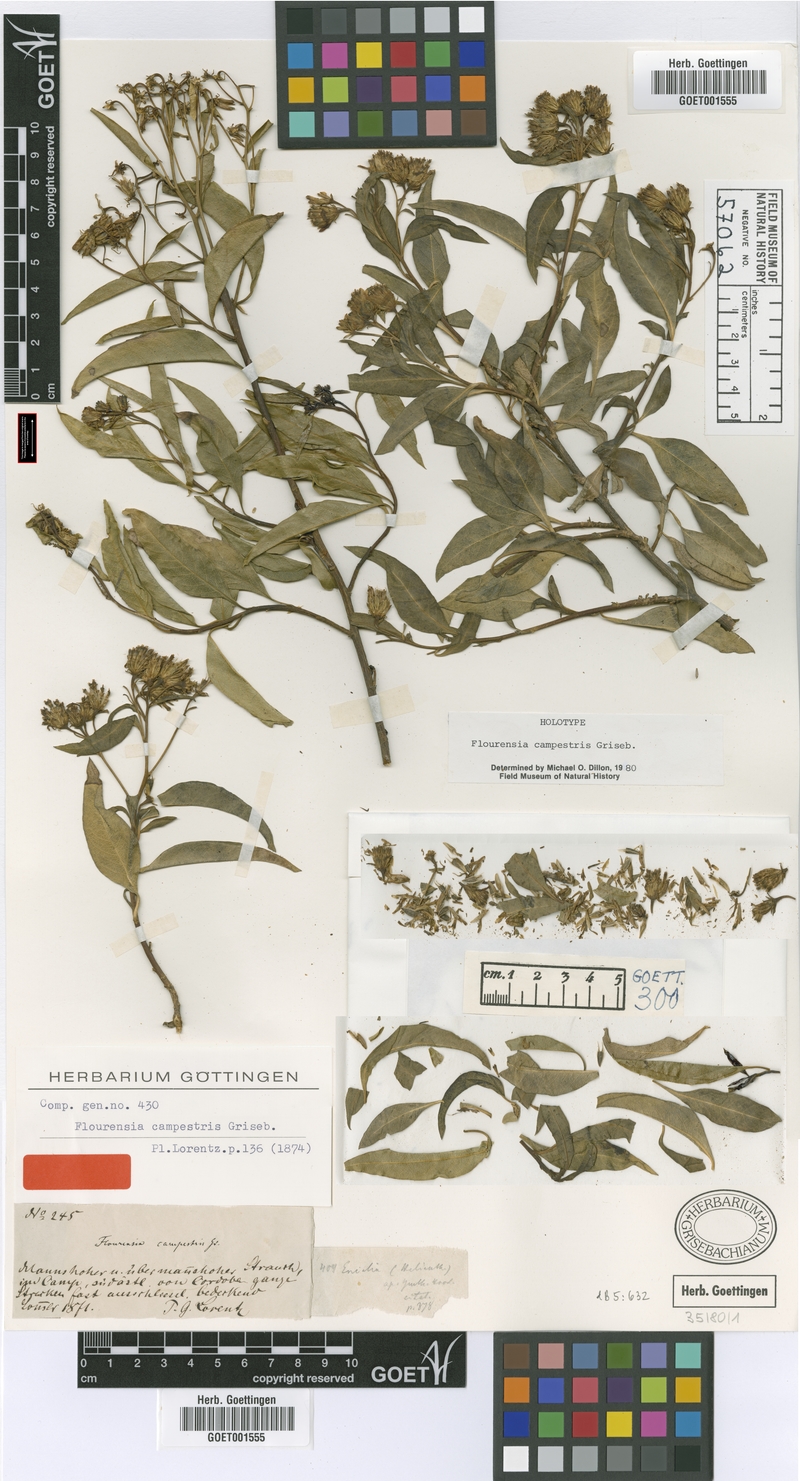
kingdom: Plantae
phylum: Tracheophyta
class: Magnoliopsida
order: Asterales
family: Asteraceae
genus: Flourensia
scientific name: Flourensia campestris
